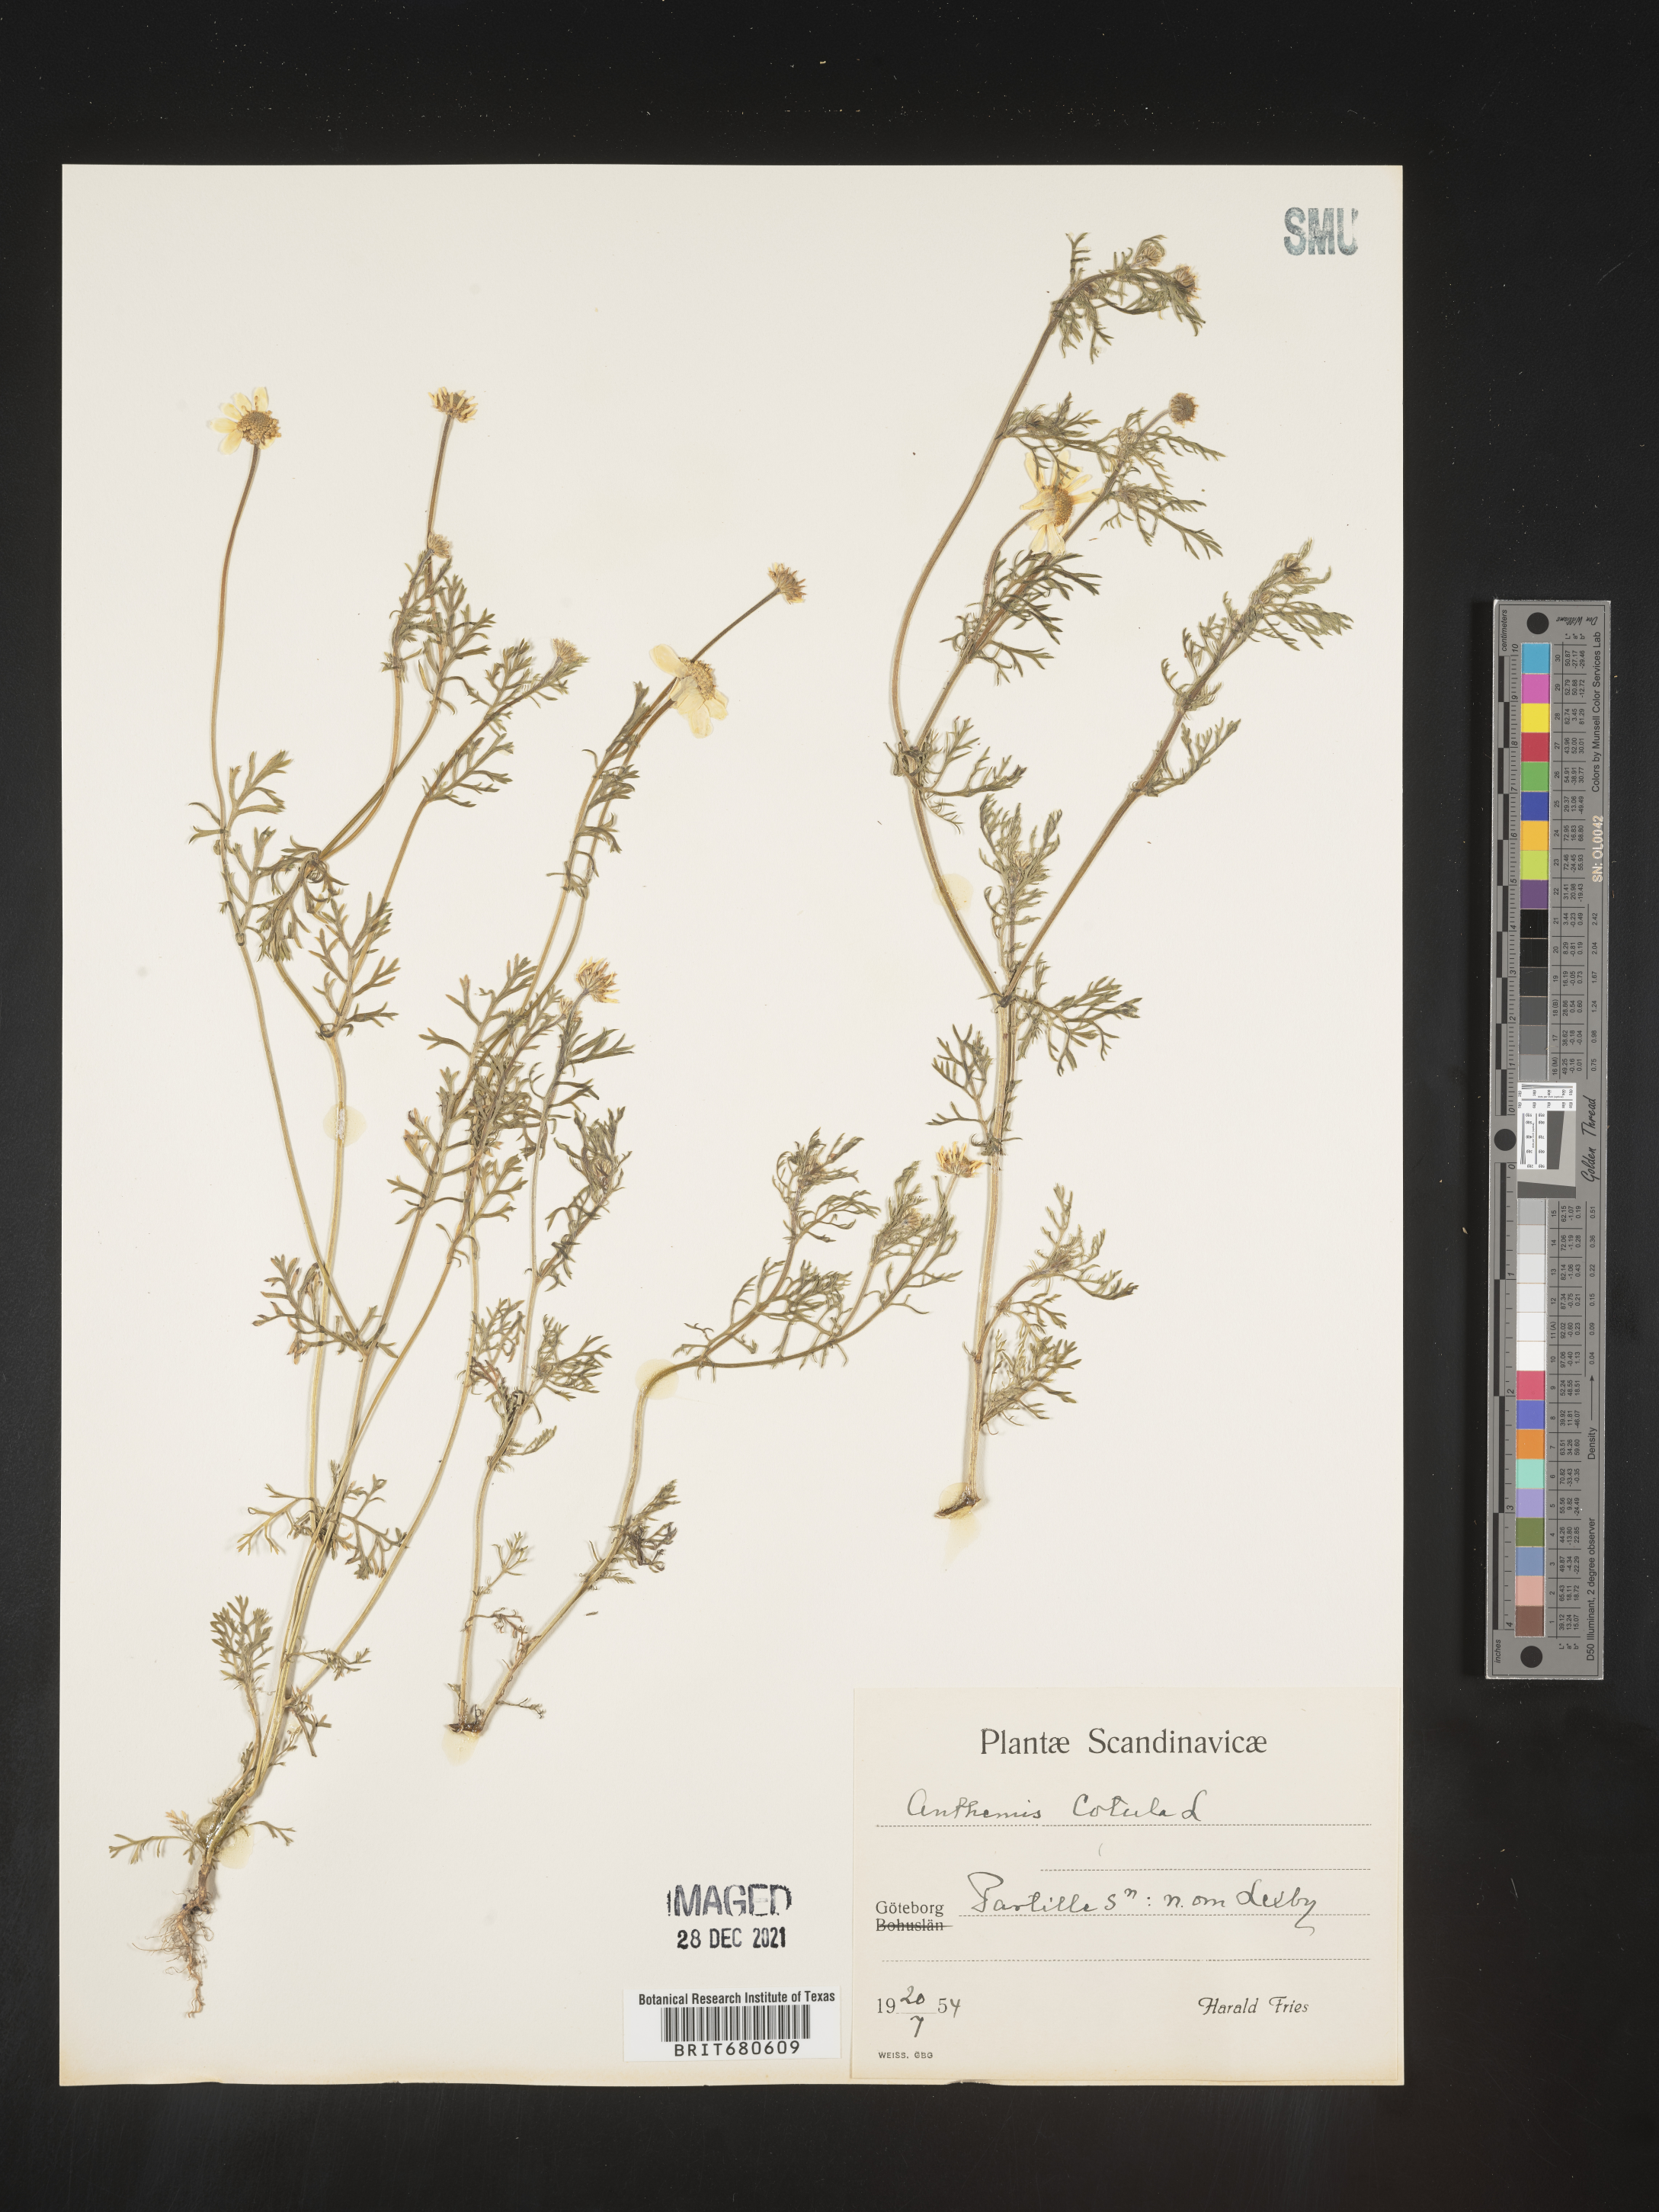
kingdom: Plantae
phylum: Tracheophyta
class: Magnoliopsida
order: Asterales
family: Asteraceae
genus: Anthemis
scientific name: Anthemis
